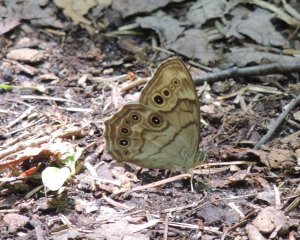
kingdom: Animalia
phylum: Arthropoda
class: Insecta
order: Lepidoptera
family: Nymphalidae
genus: Lethe
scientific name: Lethe anthedon
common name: Northern Pearly-Eye
